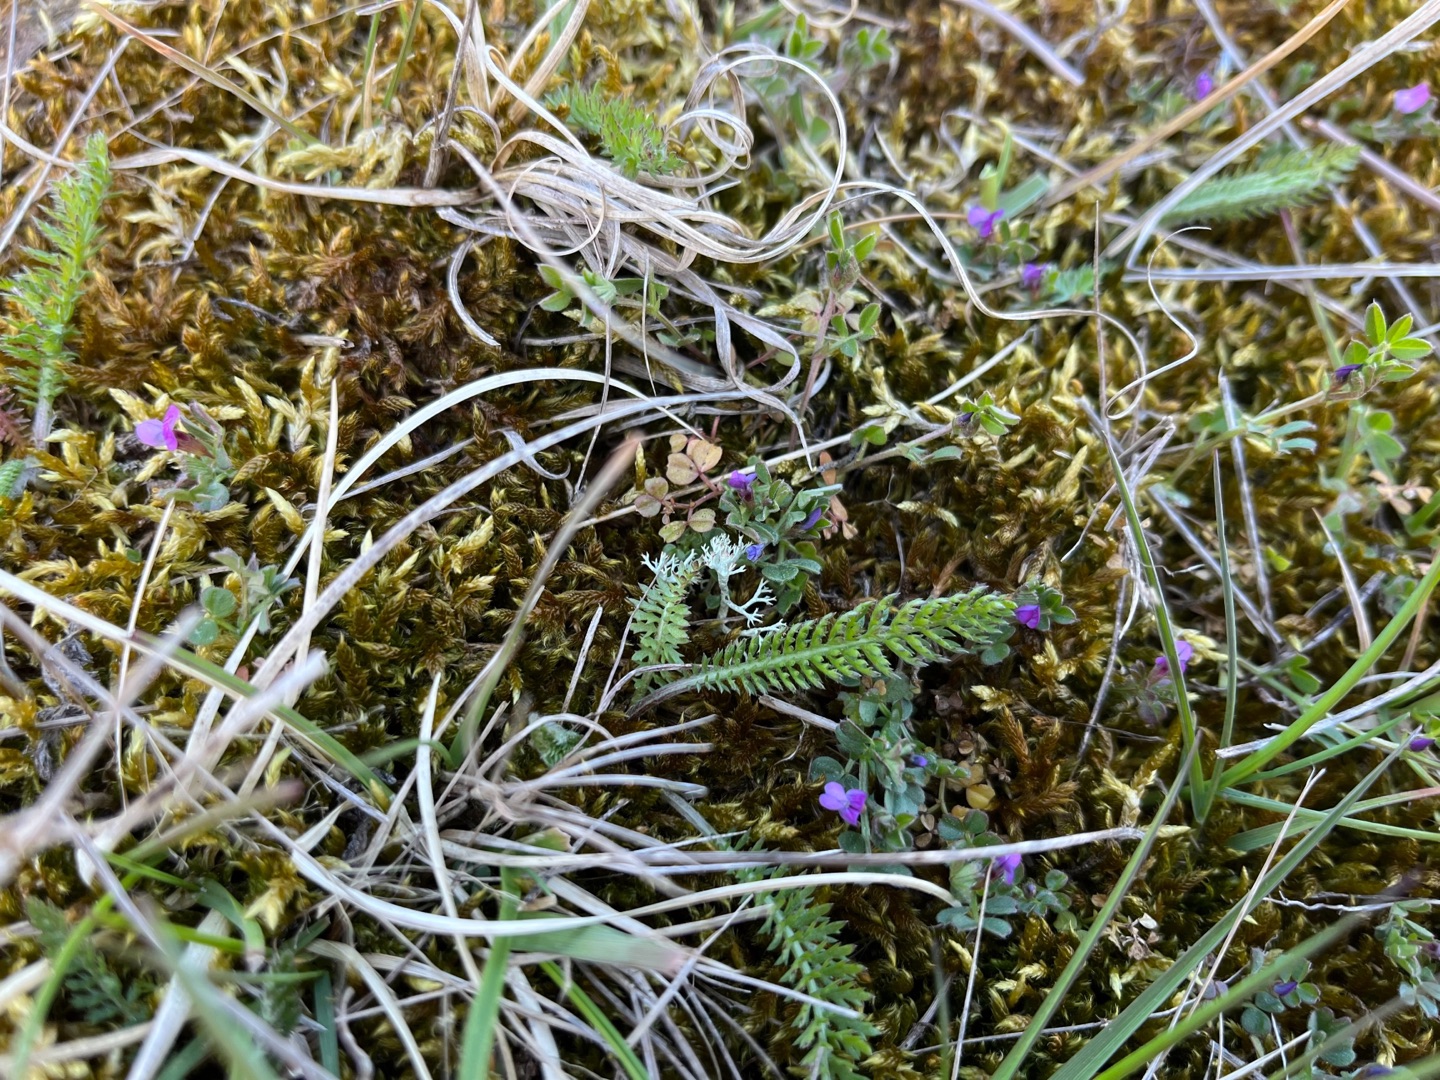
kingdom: Plantae
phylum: Tracheophyta
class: Magnoliopsida
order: Fabales
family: Fabaceae
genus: Vicia
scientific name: Vicia lathyroides
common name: Vår-vikke
